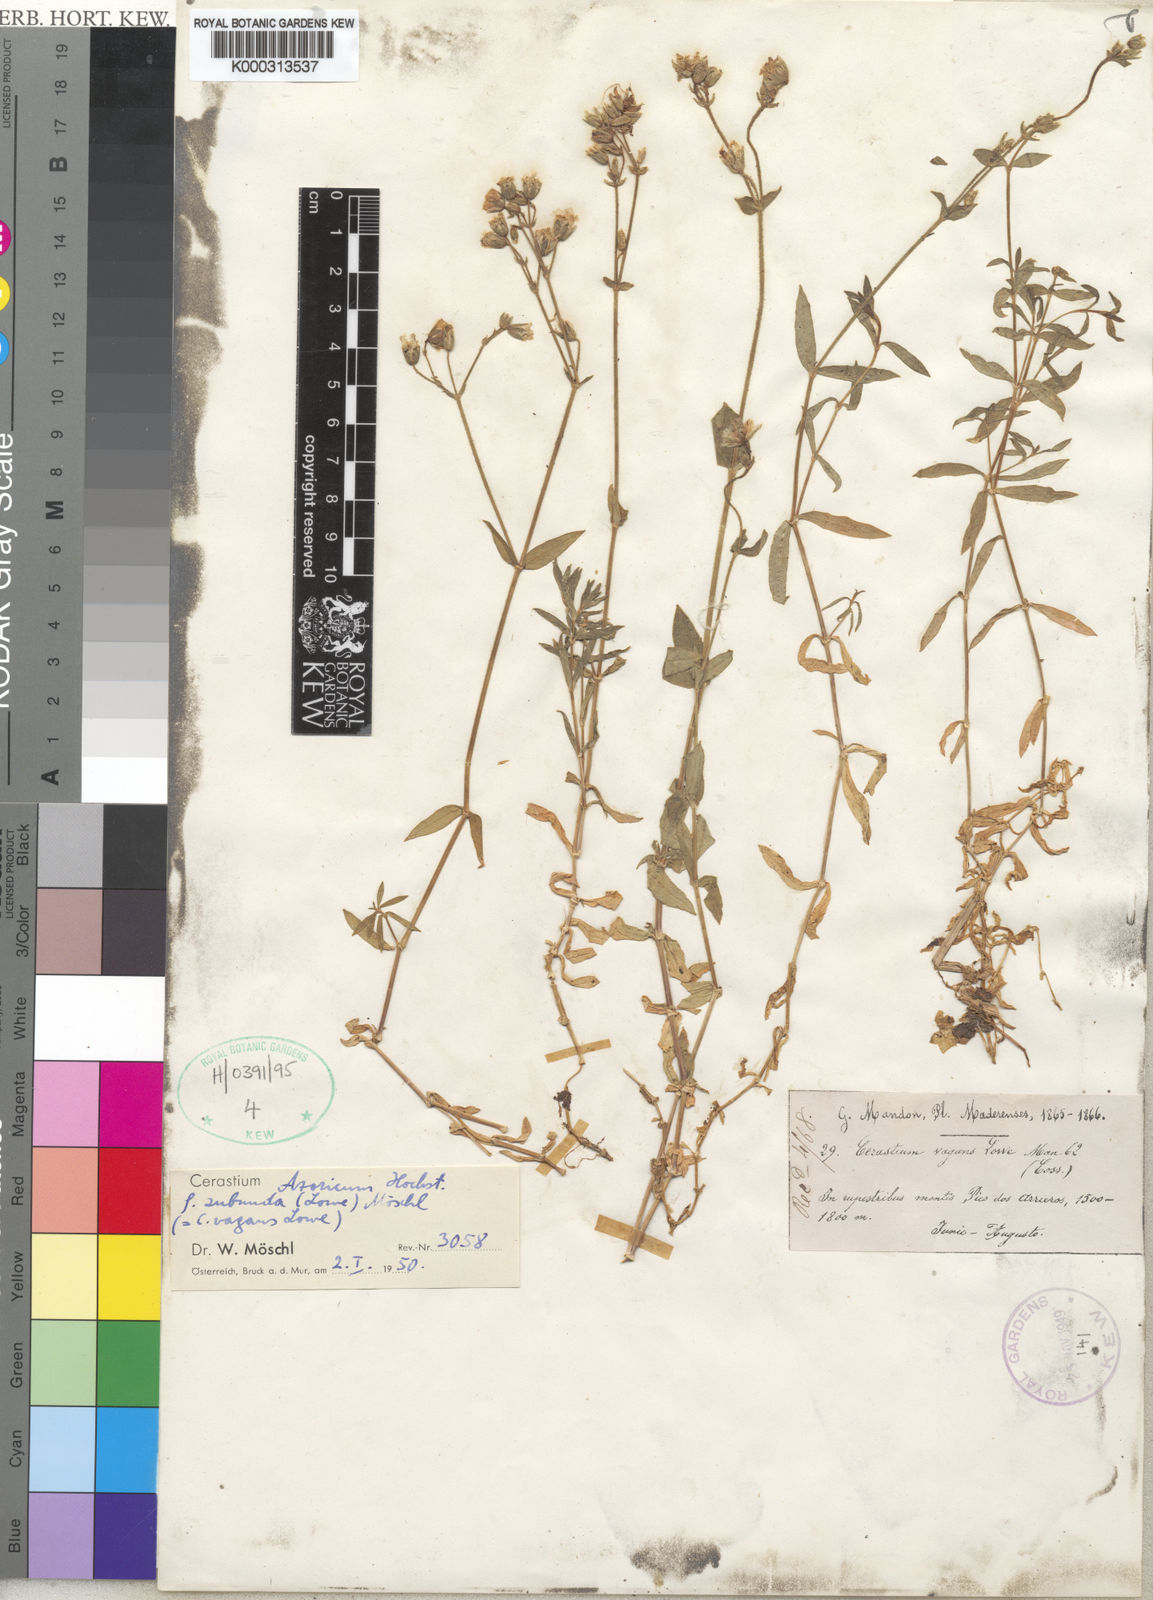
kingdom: Plantae
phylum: Tracheophyta
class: Magnoliopsida
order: Caryophyllales
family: Caryophyllaceae
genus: Cerastium
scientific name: Cerastium azoricum
